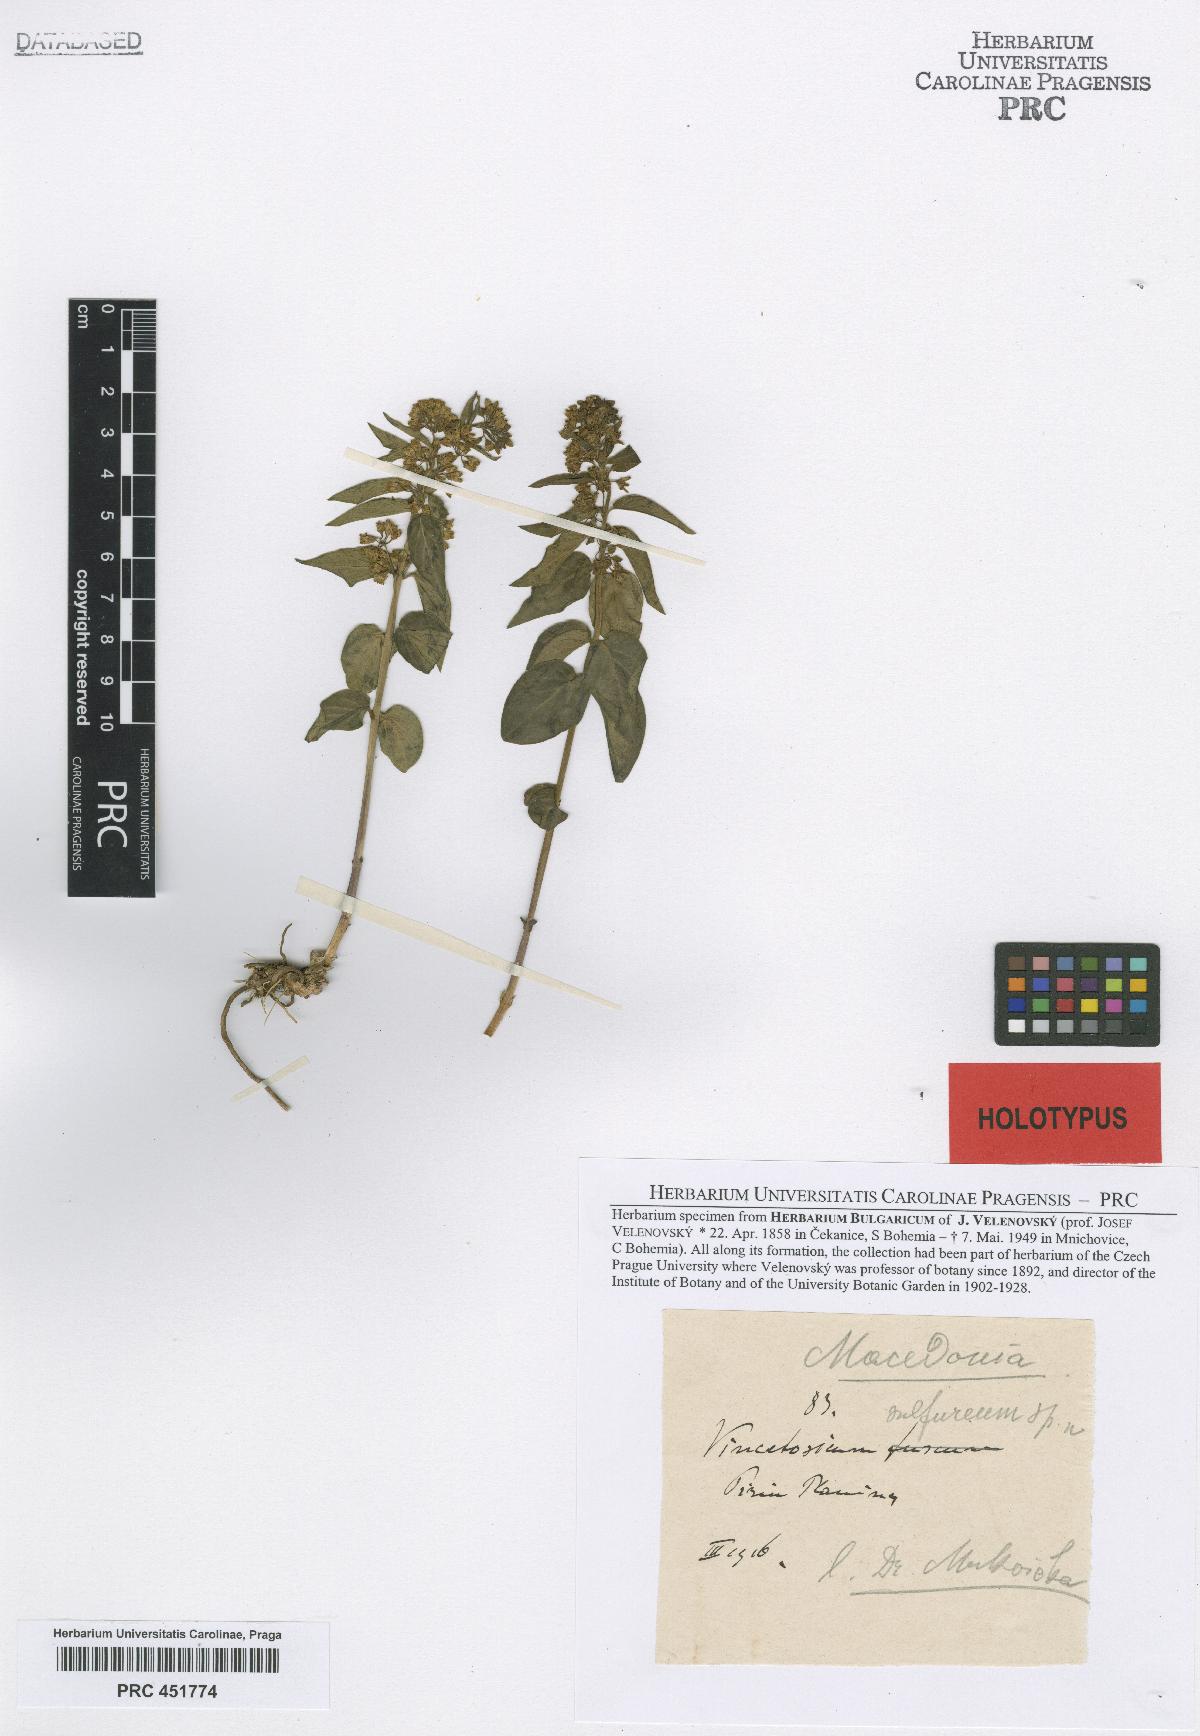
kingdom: Plantae
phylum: Tracheophyta
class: Magnoliopsida
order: Gentianales
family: Apocynaceae
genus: Vincetoxicum
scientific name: Vincetoxicum hirundinaria
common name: White swallowwort
